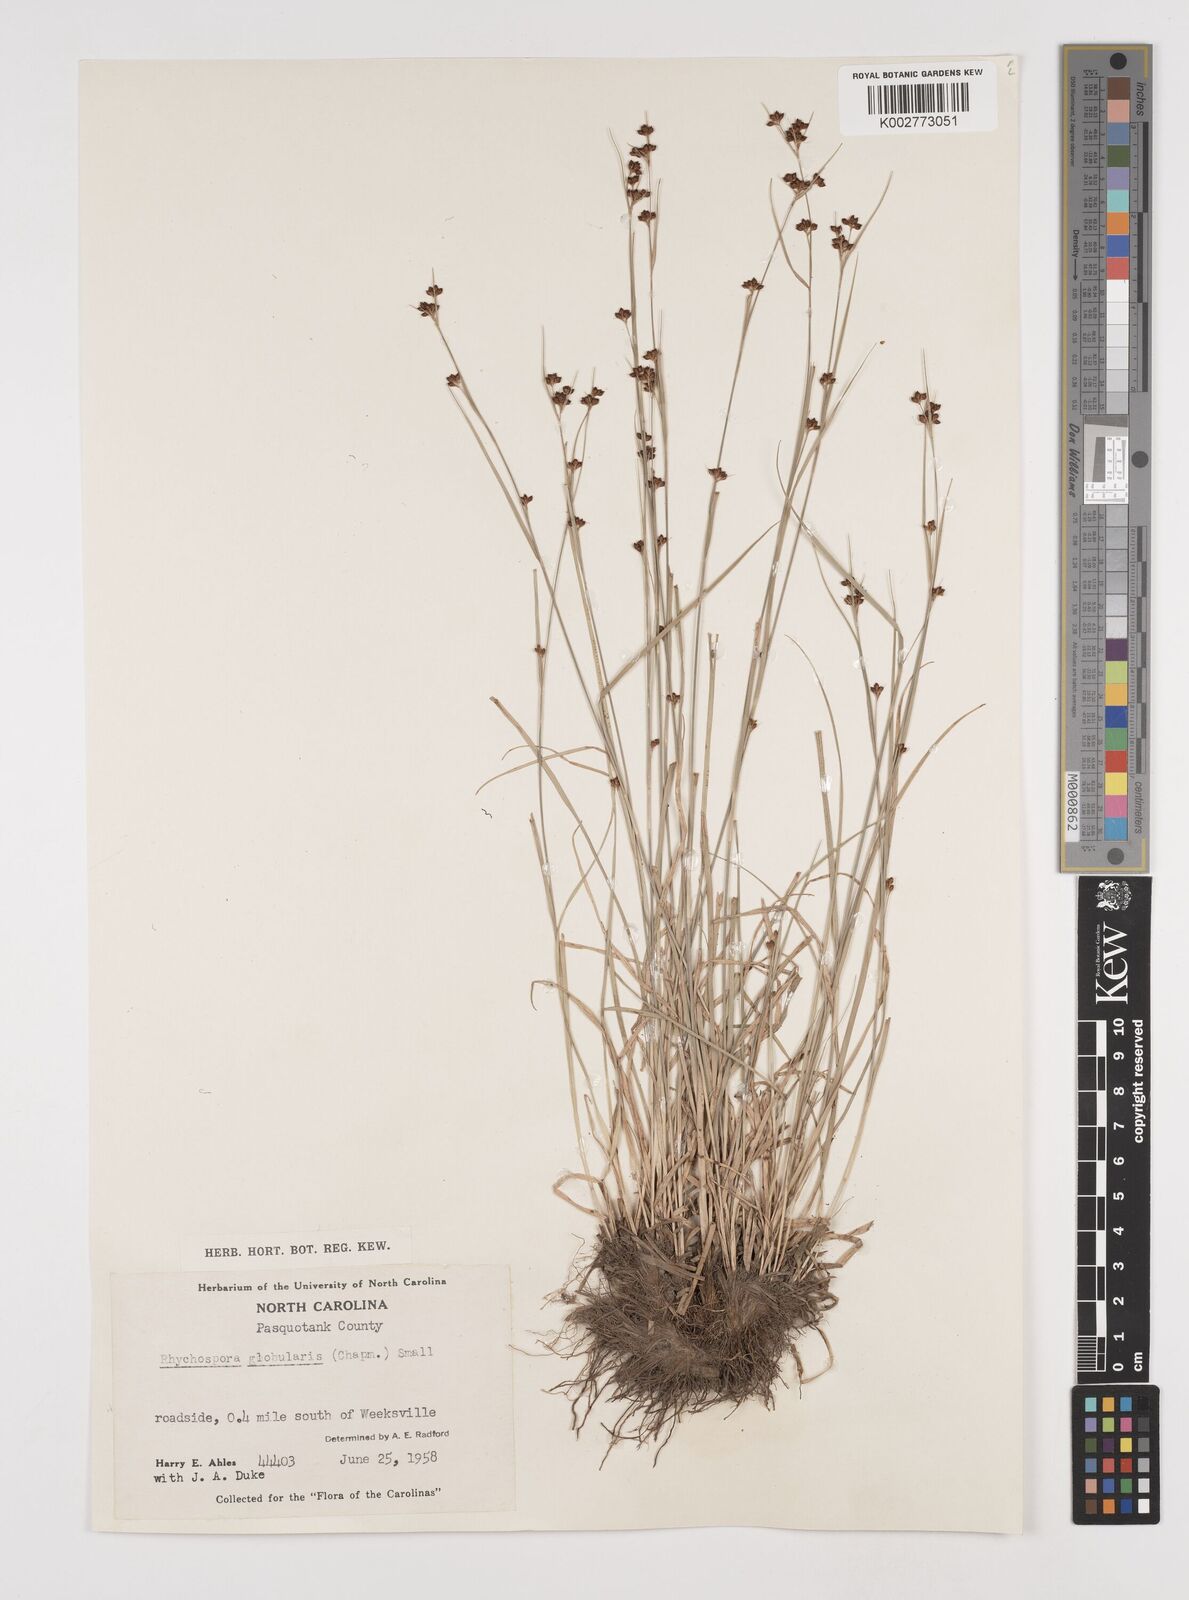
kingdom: Plantae
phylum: Tracheophyta
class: Liliopsida
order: Poales
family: Cyperaceae
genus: Rhynchospora
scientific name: Rhynchospora globularis
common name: Globe beaksedge
